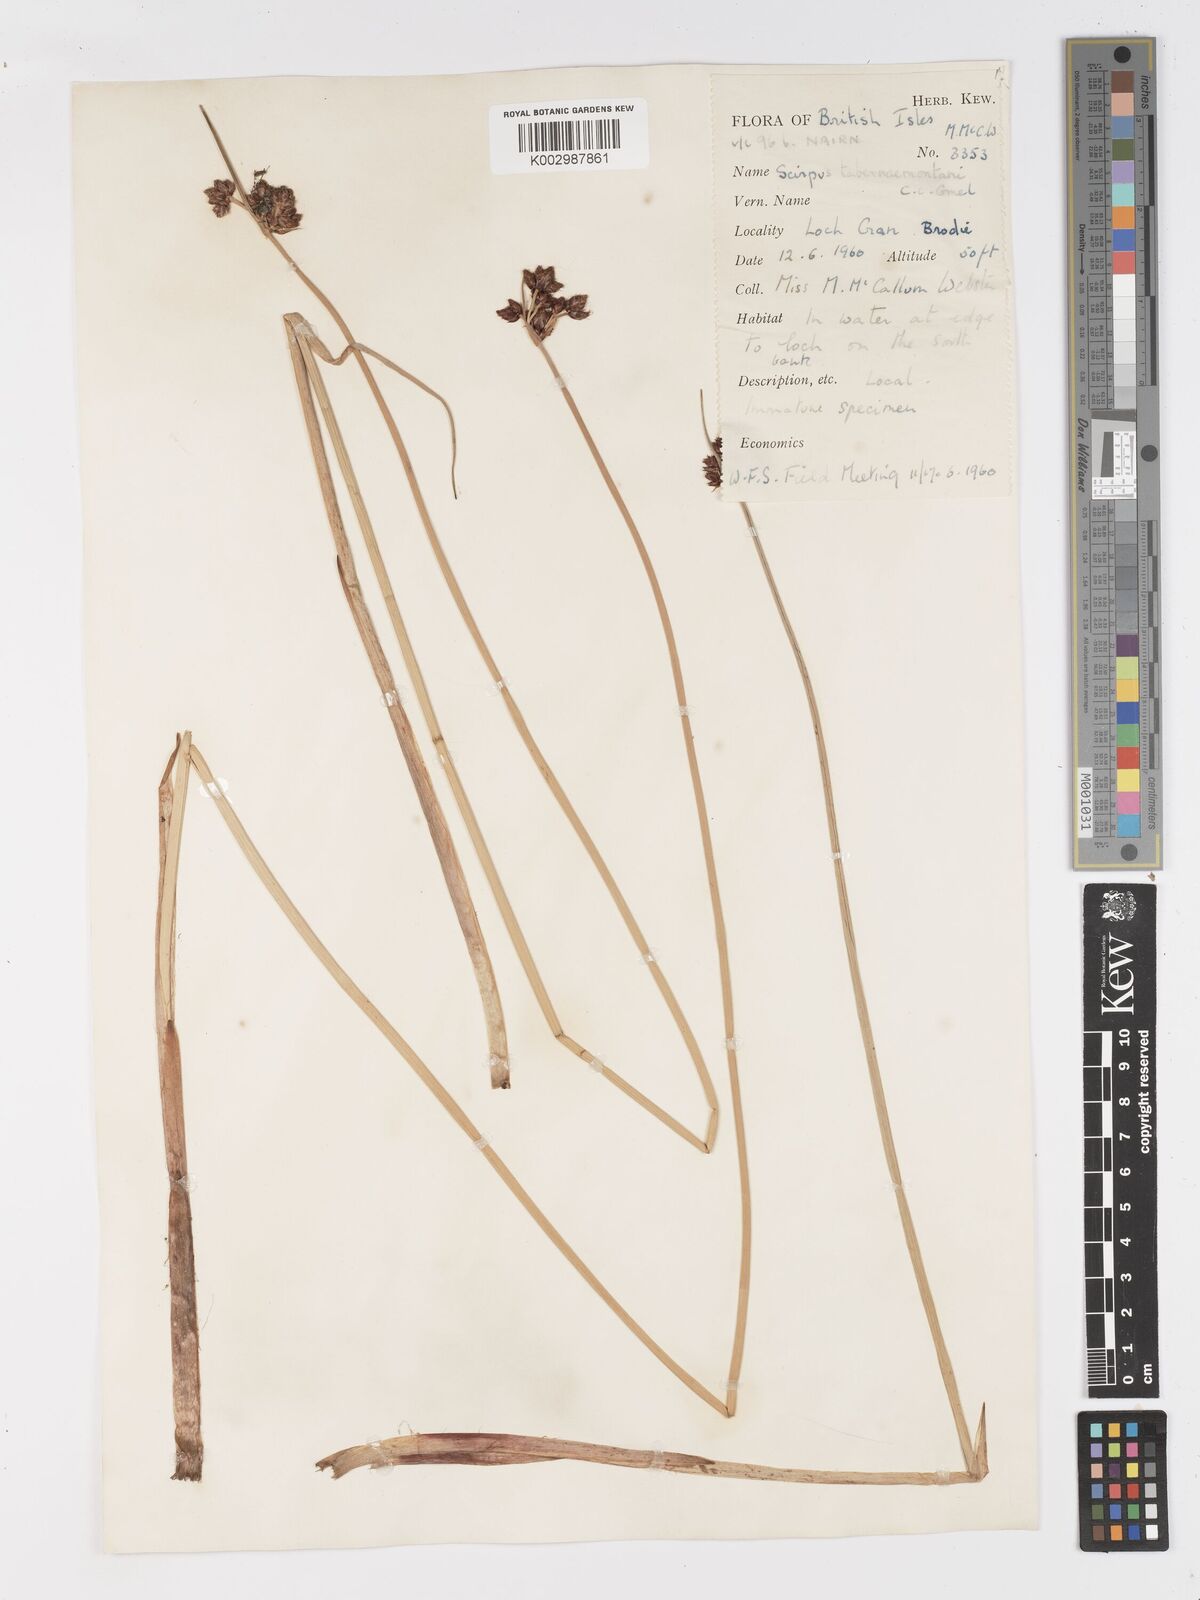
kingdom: Plantae
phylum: Tracheophyta
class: Liliopsida
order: Poales
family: Cyperaceae
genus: Schoenoplectus
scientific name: Schoenoplectus tabernaemontani
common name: Grey club-rush
